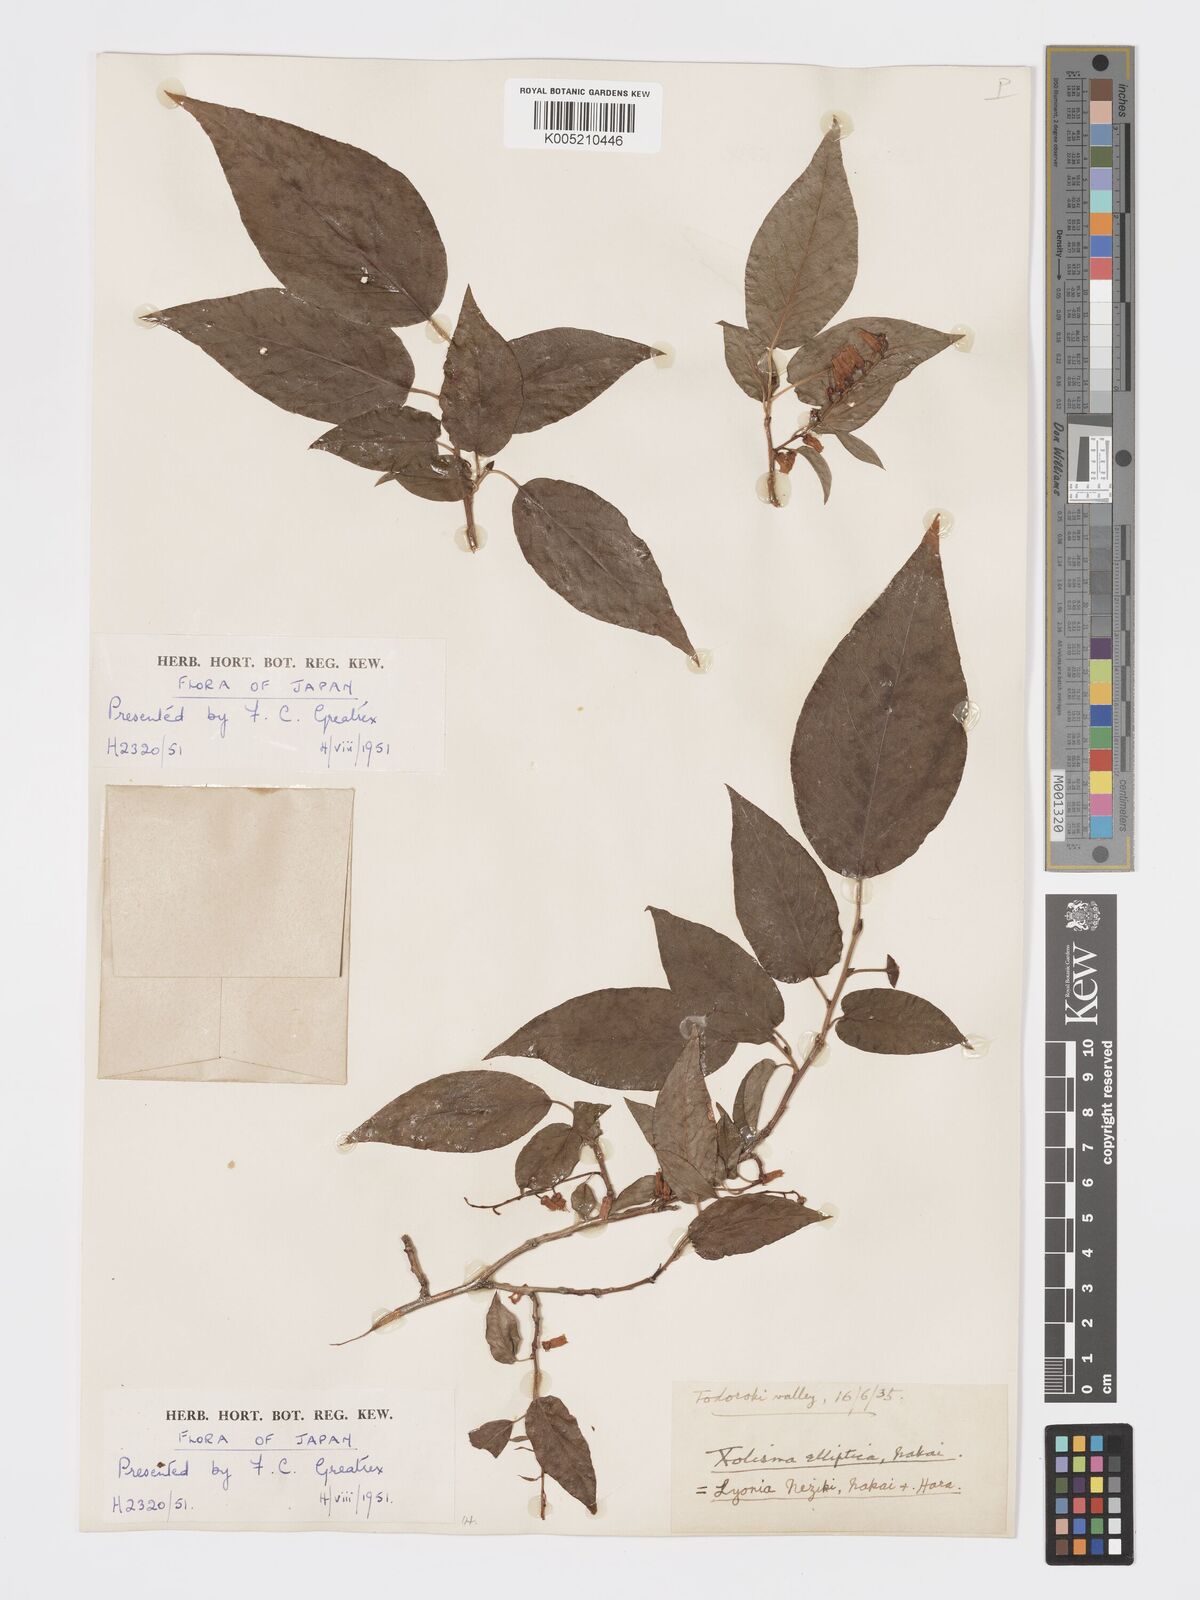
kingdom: Plantae
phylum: Tracheophyta
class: Magnoliopsida
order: Ericales
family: Ericaceae
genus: Lyonia
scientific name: Lyonia elliptica
